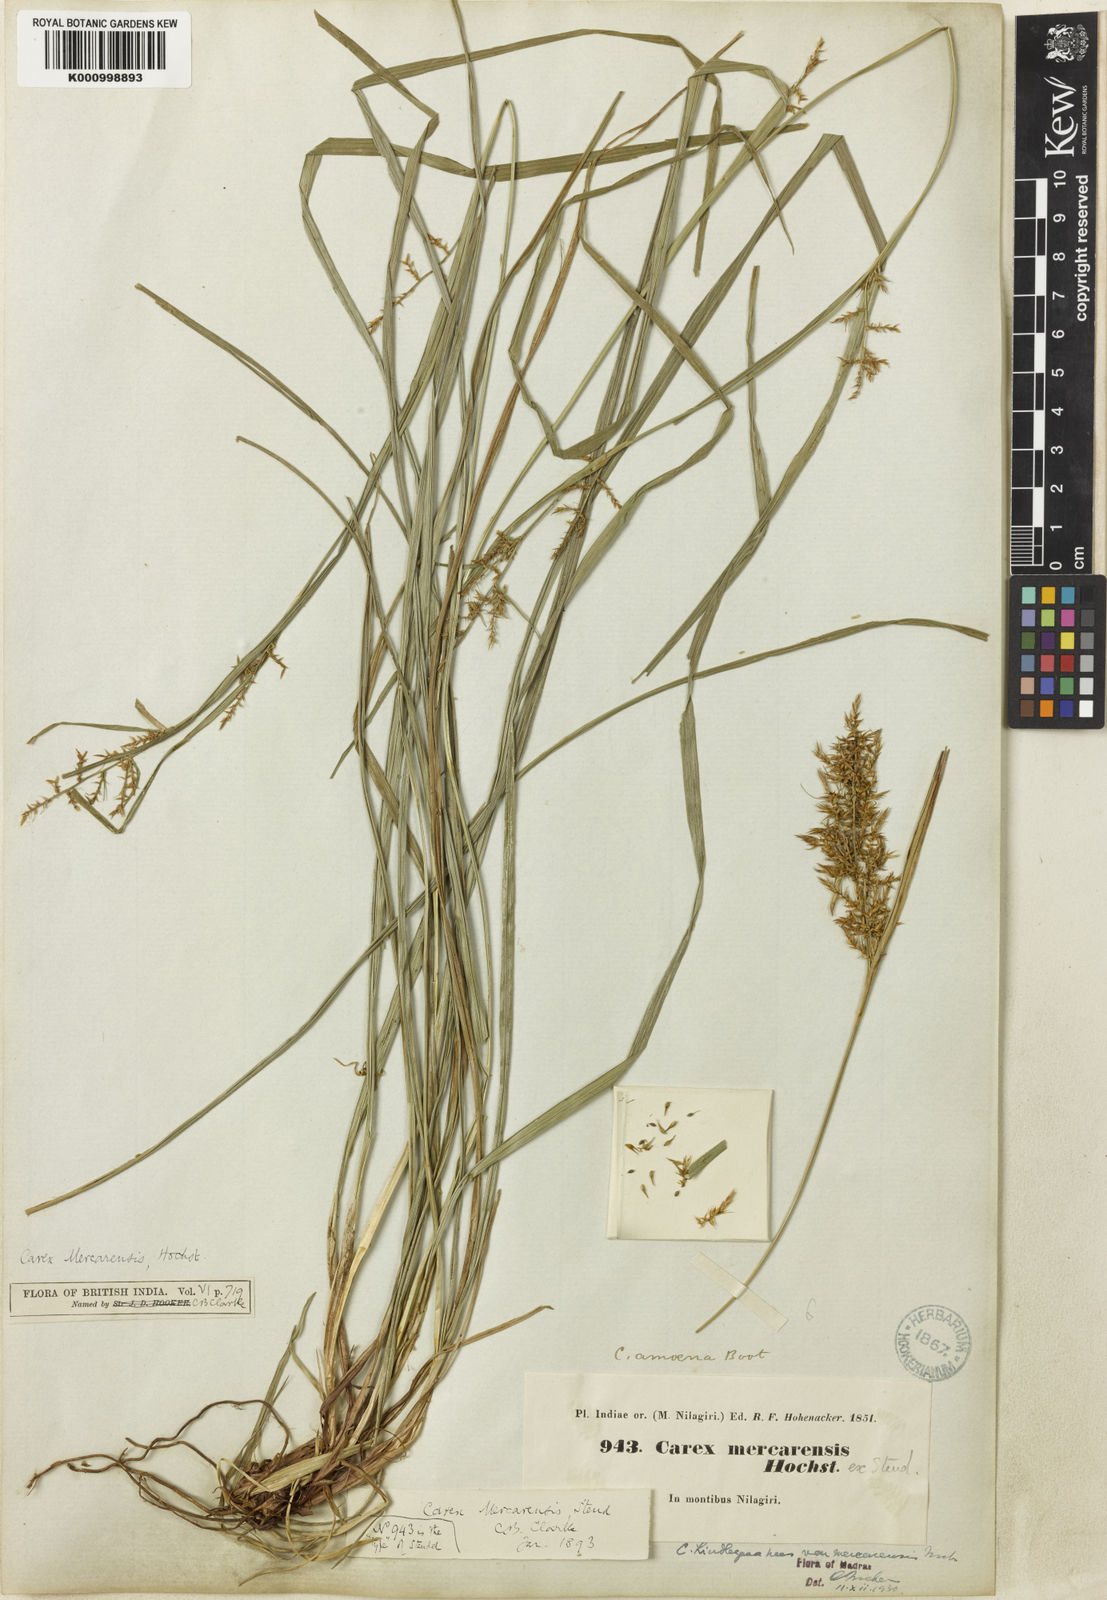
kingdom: Plantae
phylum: Tracheophyta
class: Liliopsida
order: Poales
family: Cyperaceae
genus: Carex
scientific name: Carex raphidocarpa
